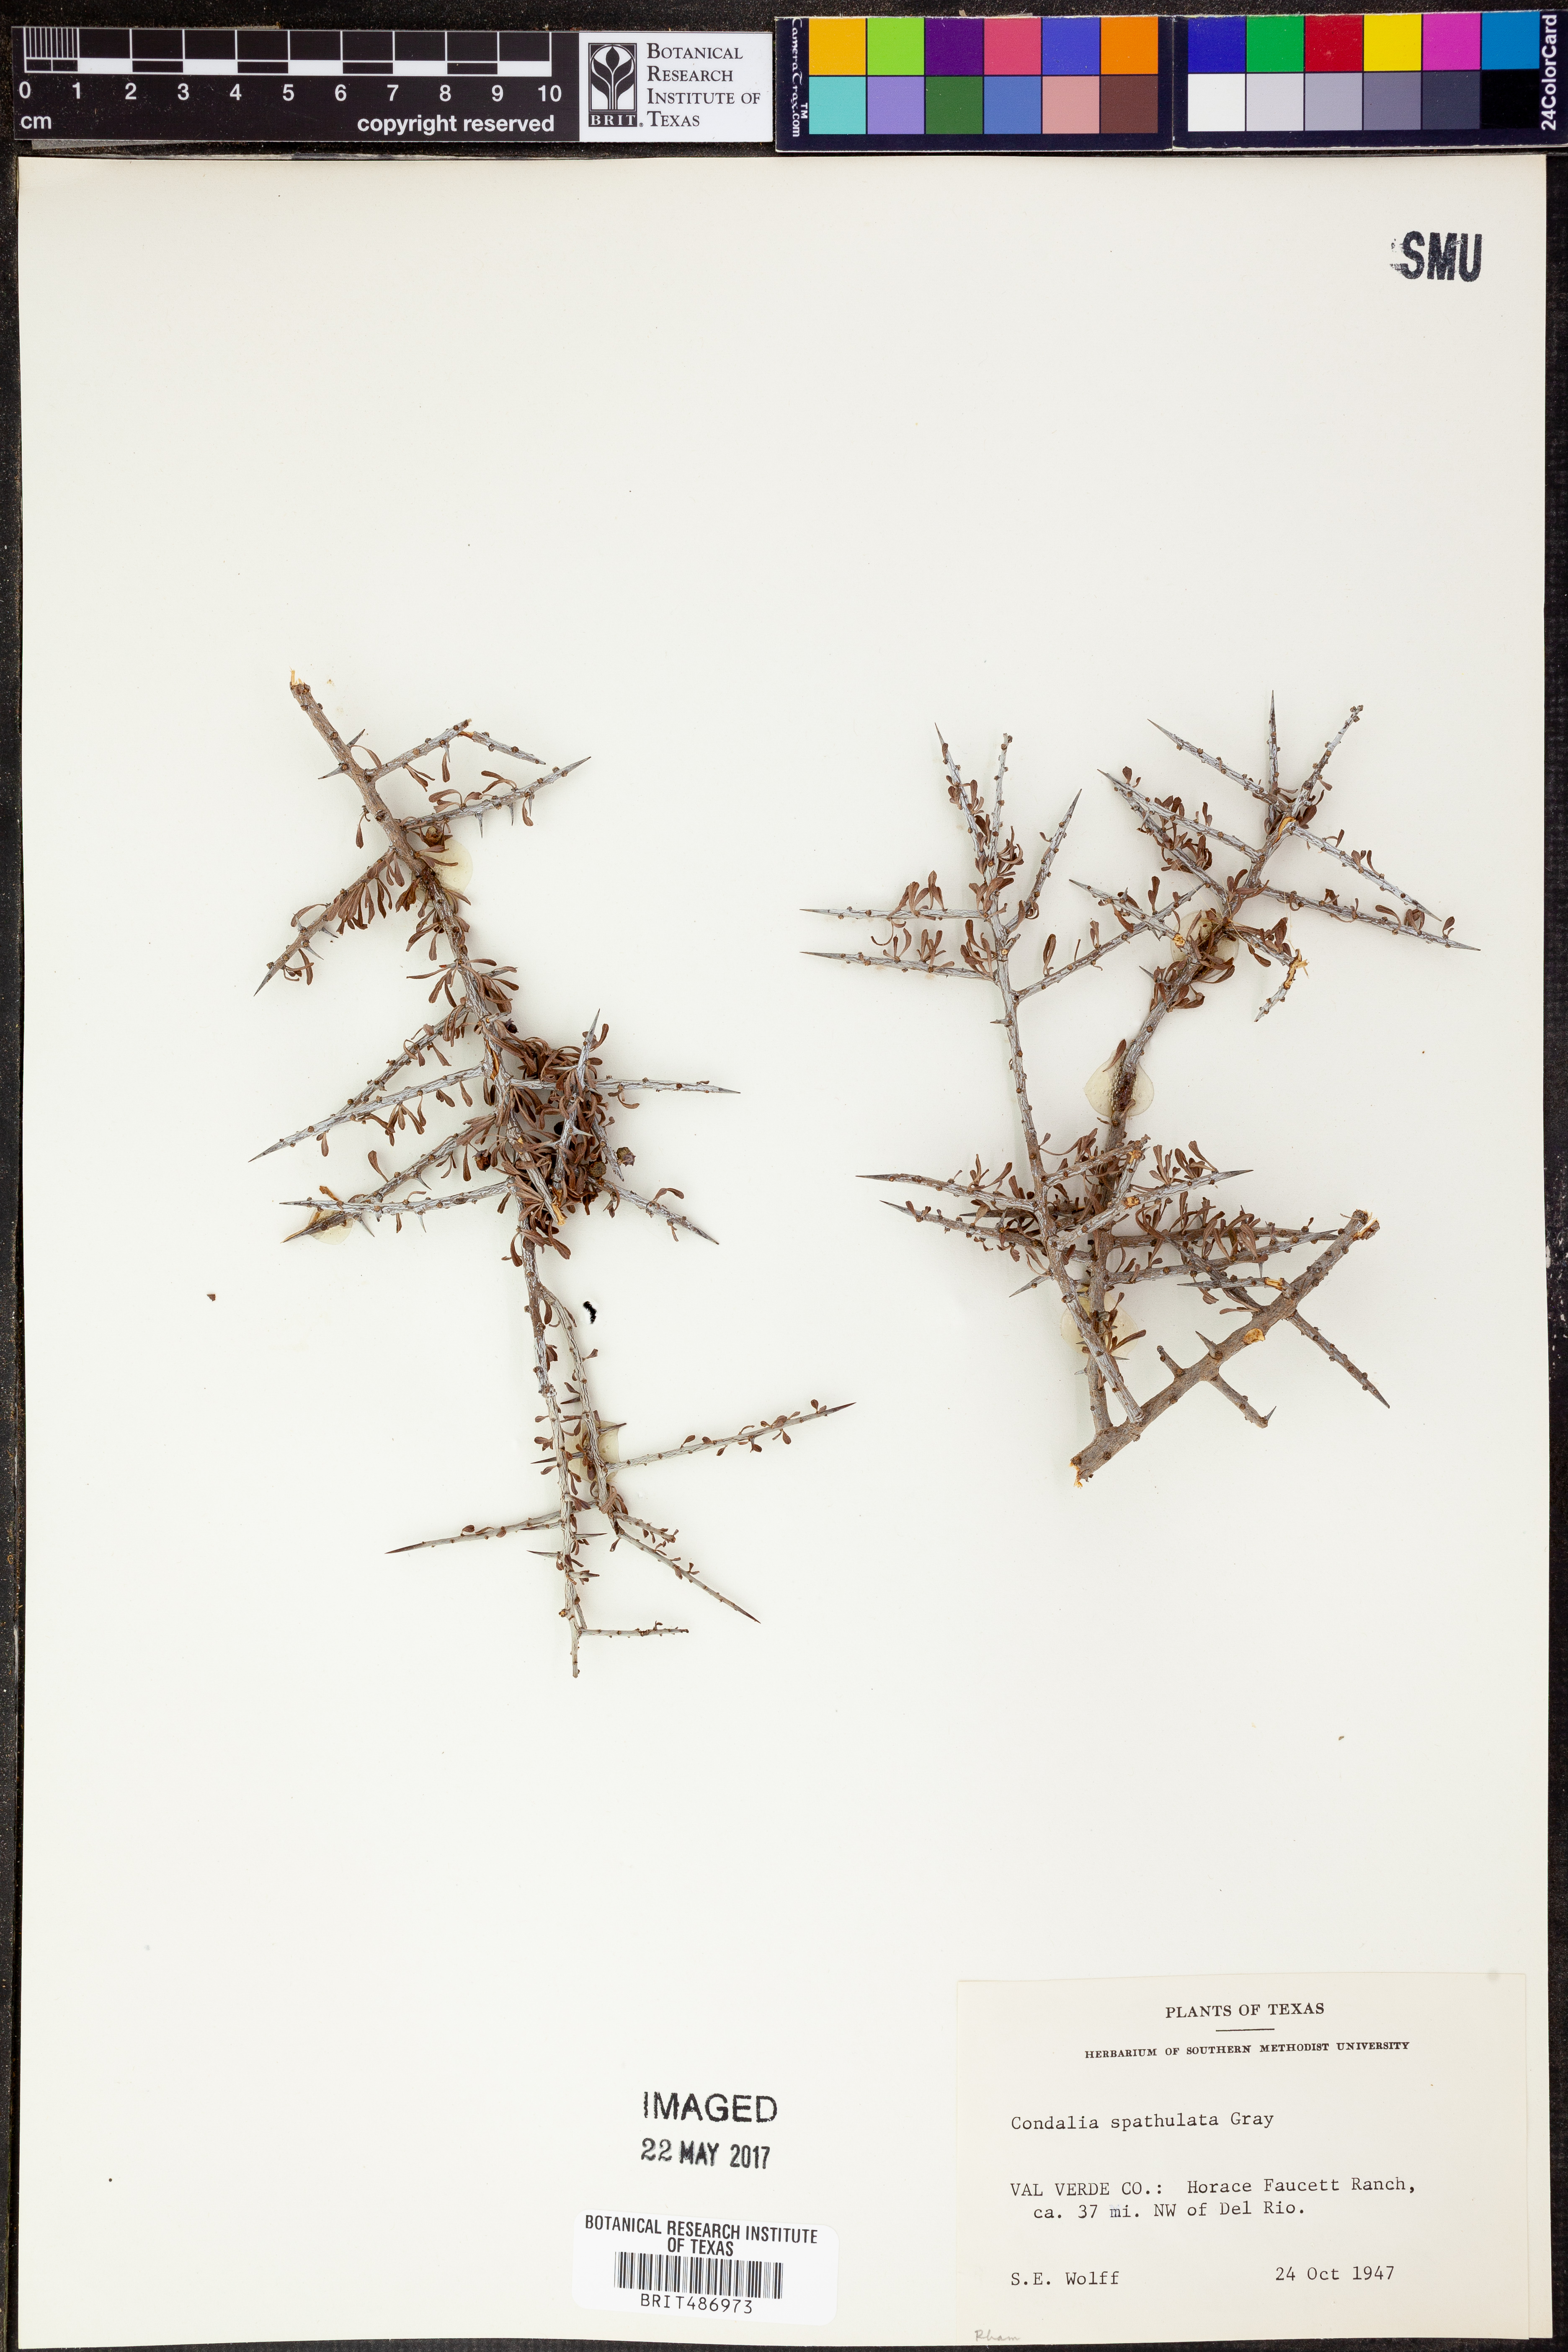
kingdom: Plantae
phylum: Tracheophyta
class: Magnoliopsida
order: Rosales
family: Rhamnaceae
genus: Condalia
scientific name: Condalia spathulata
